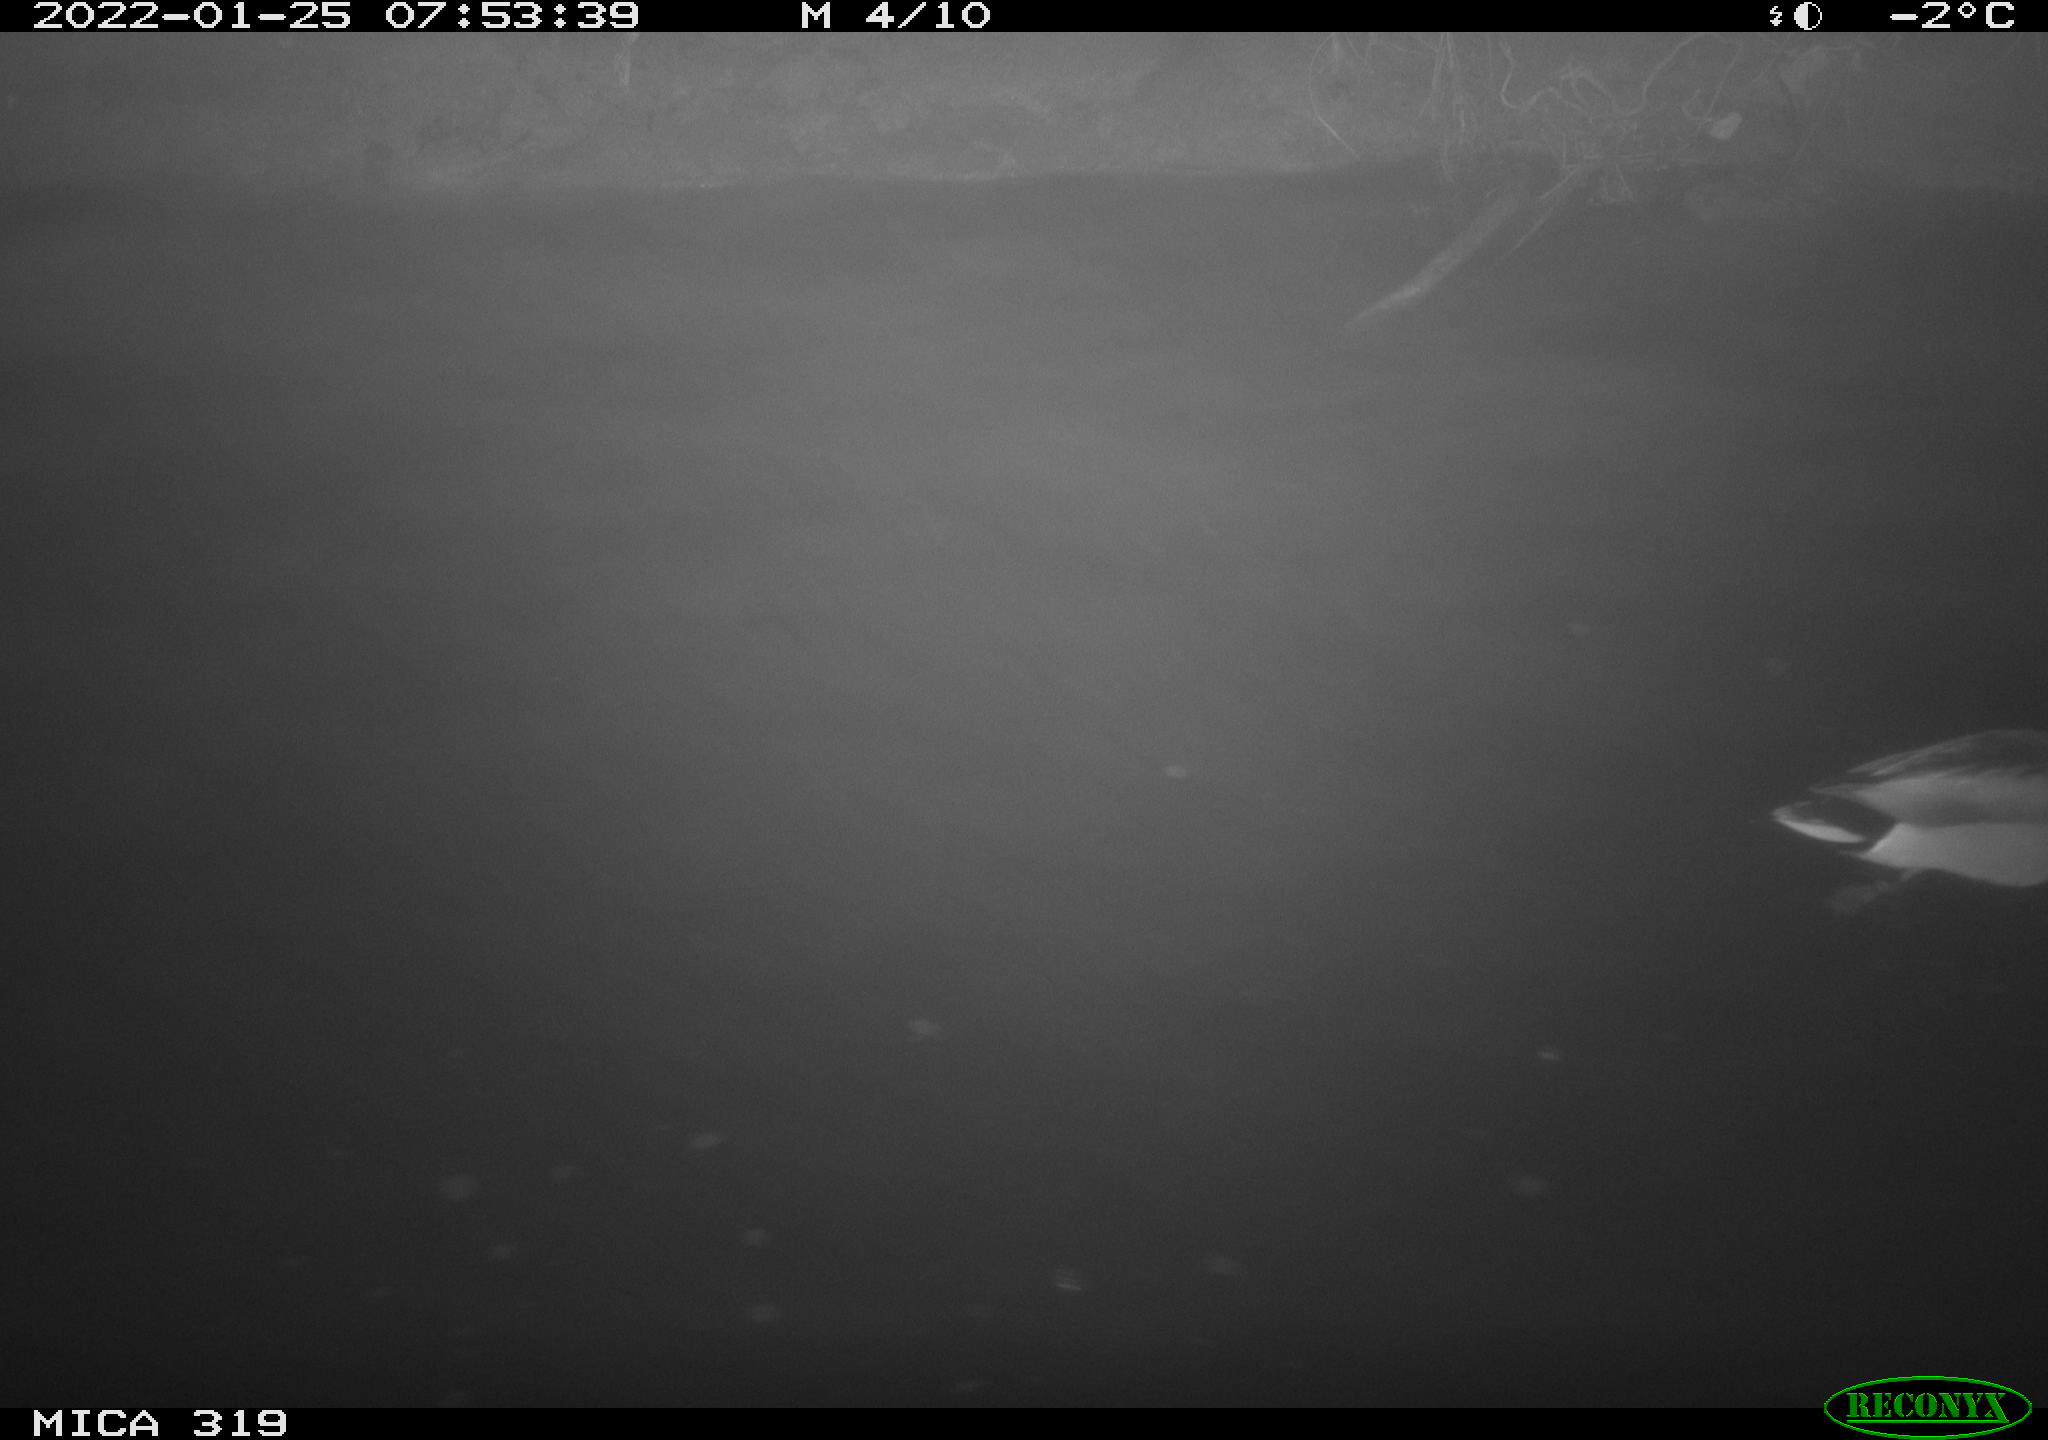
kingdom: Animalia
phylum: Chordata
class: Aves
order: Anseriformes
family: Anatidae
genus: Anas
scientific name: Anas platyrhynchos
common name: Mallard
